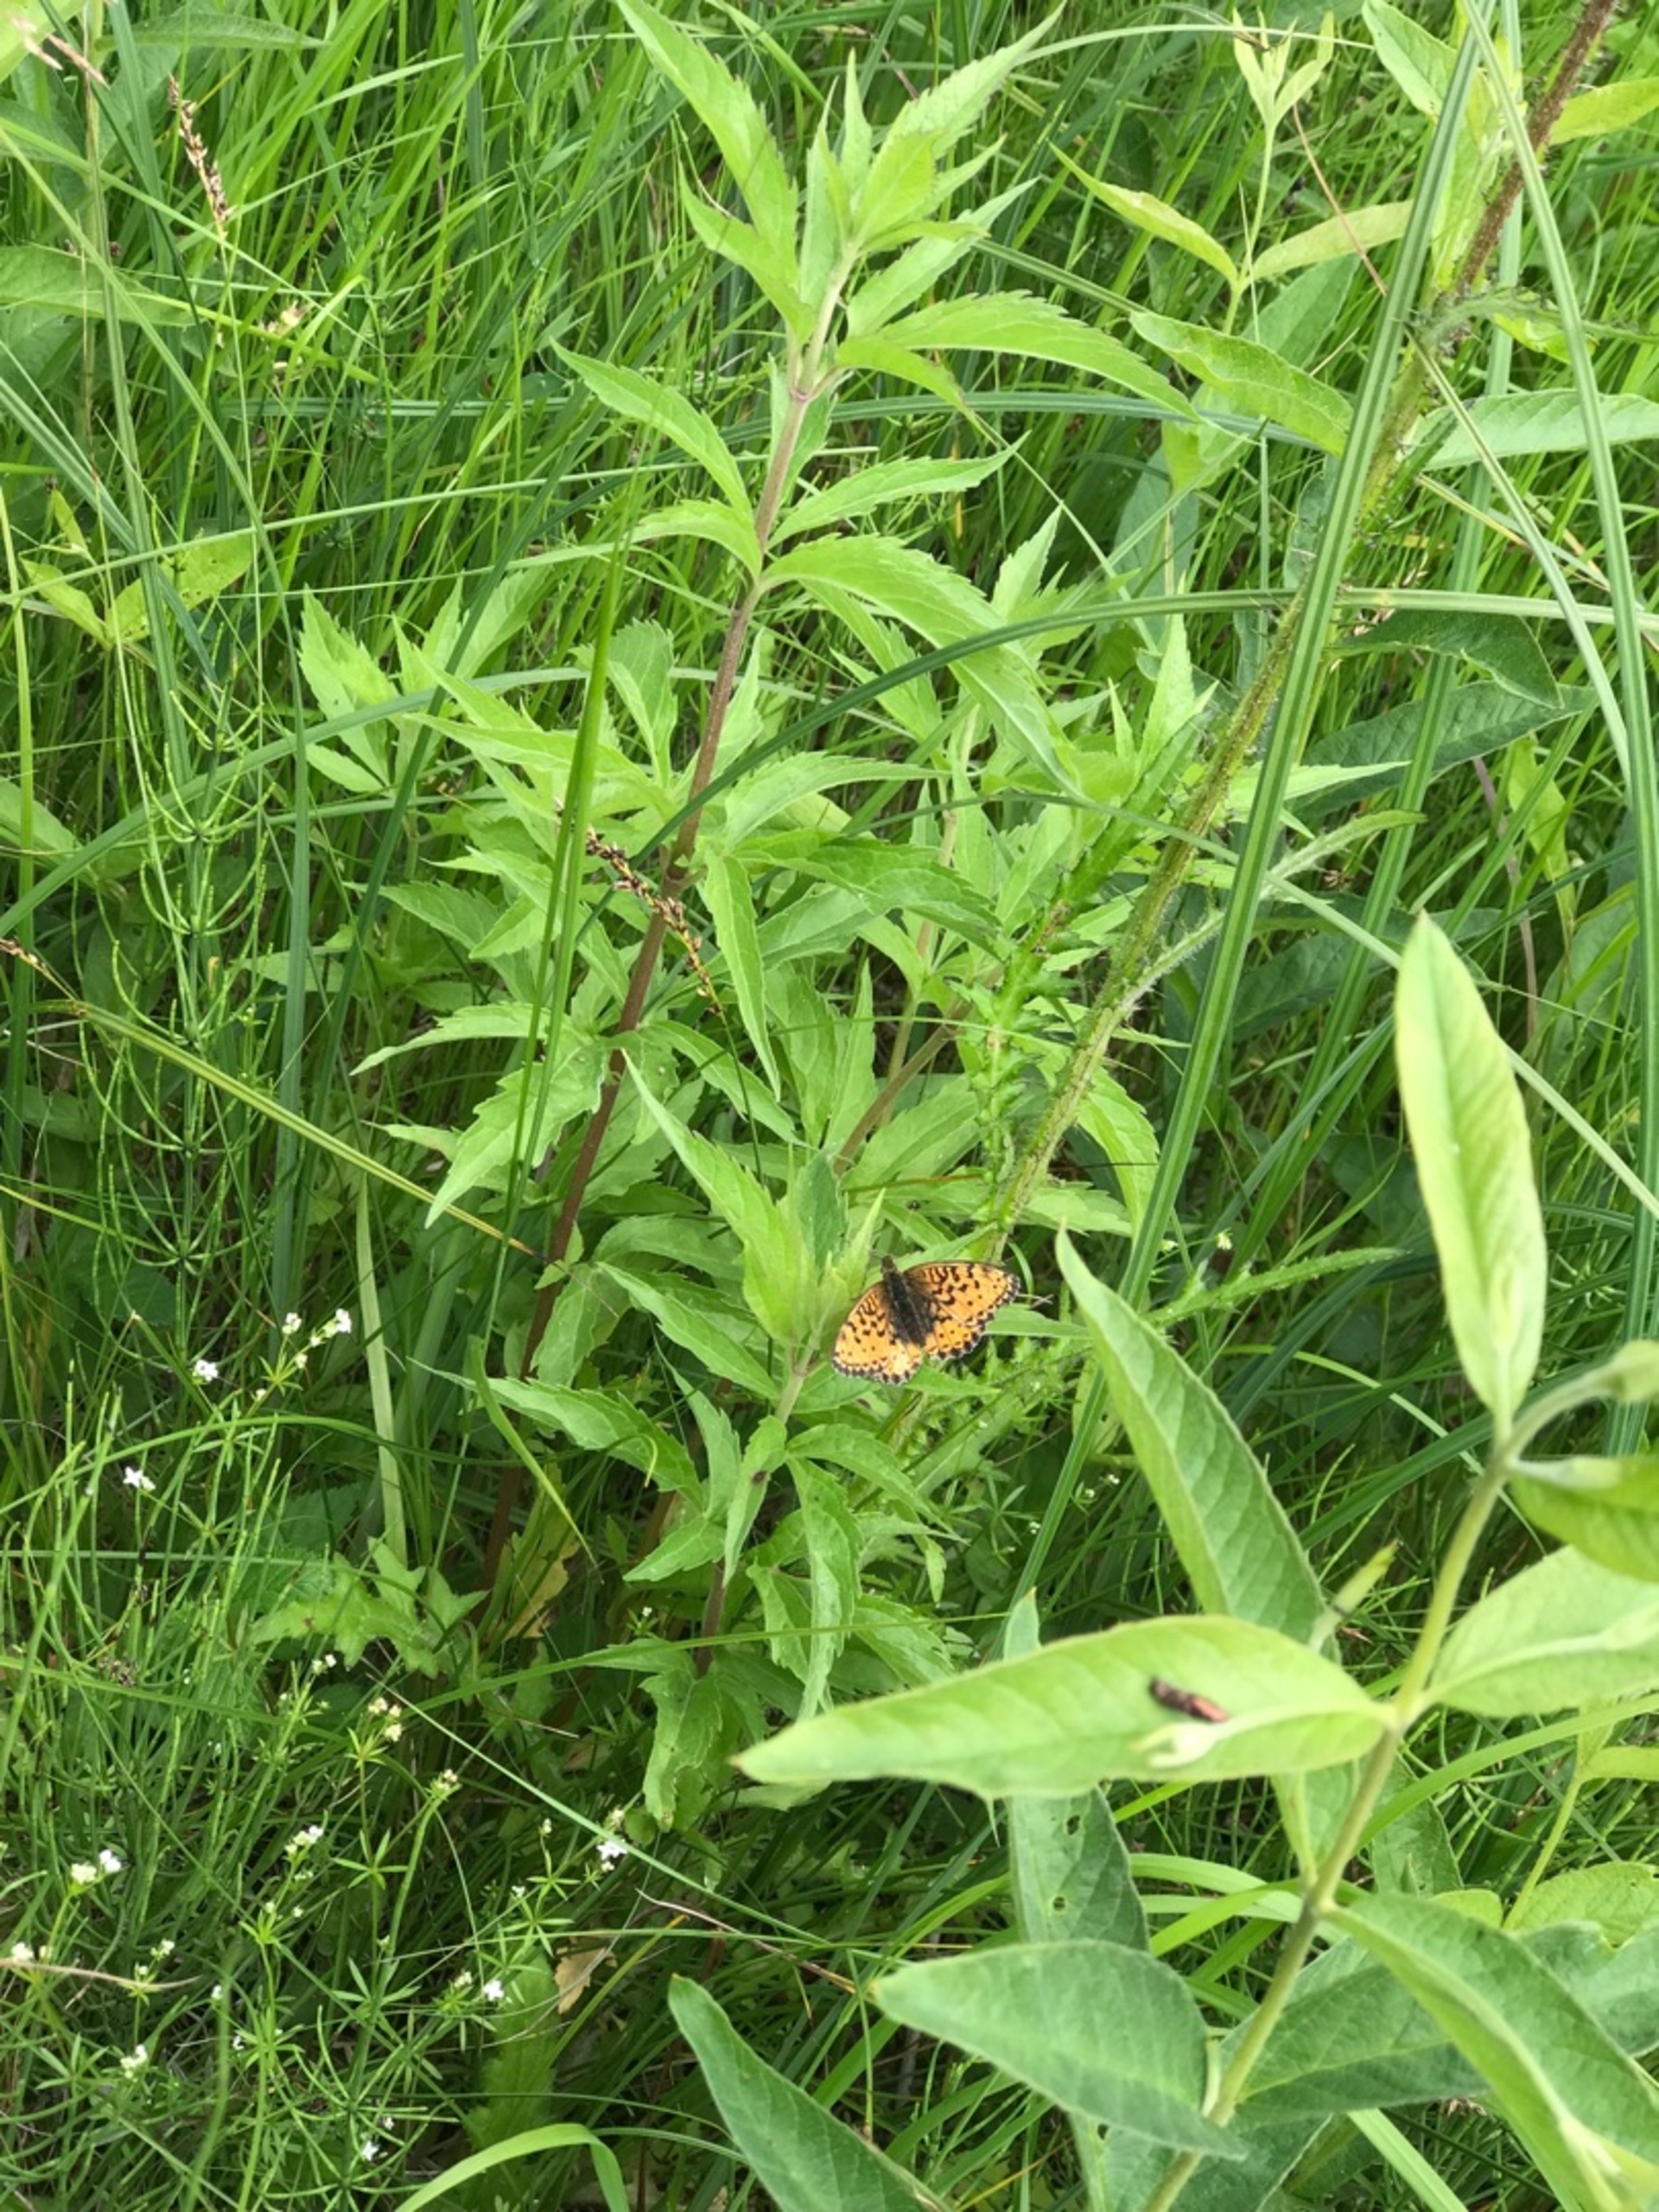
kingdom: Animalia
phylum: Arthropoda
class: Insecta
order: Lepidoptera
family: Nymphalidae
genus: Brenthis
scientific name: Brenthis ino
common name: Engperlemorsommerfugl
